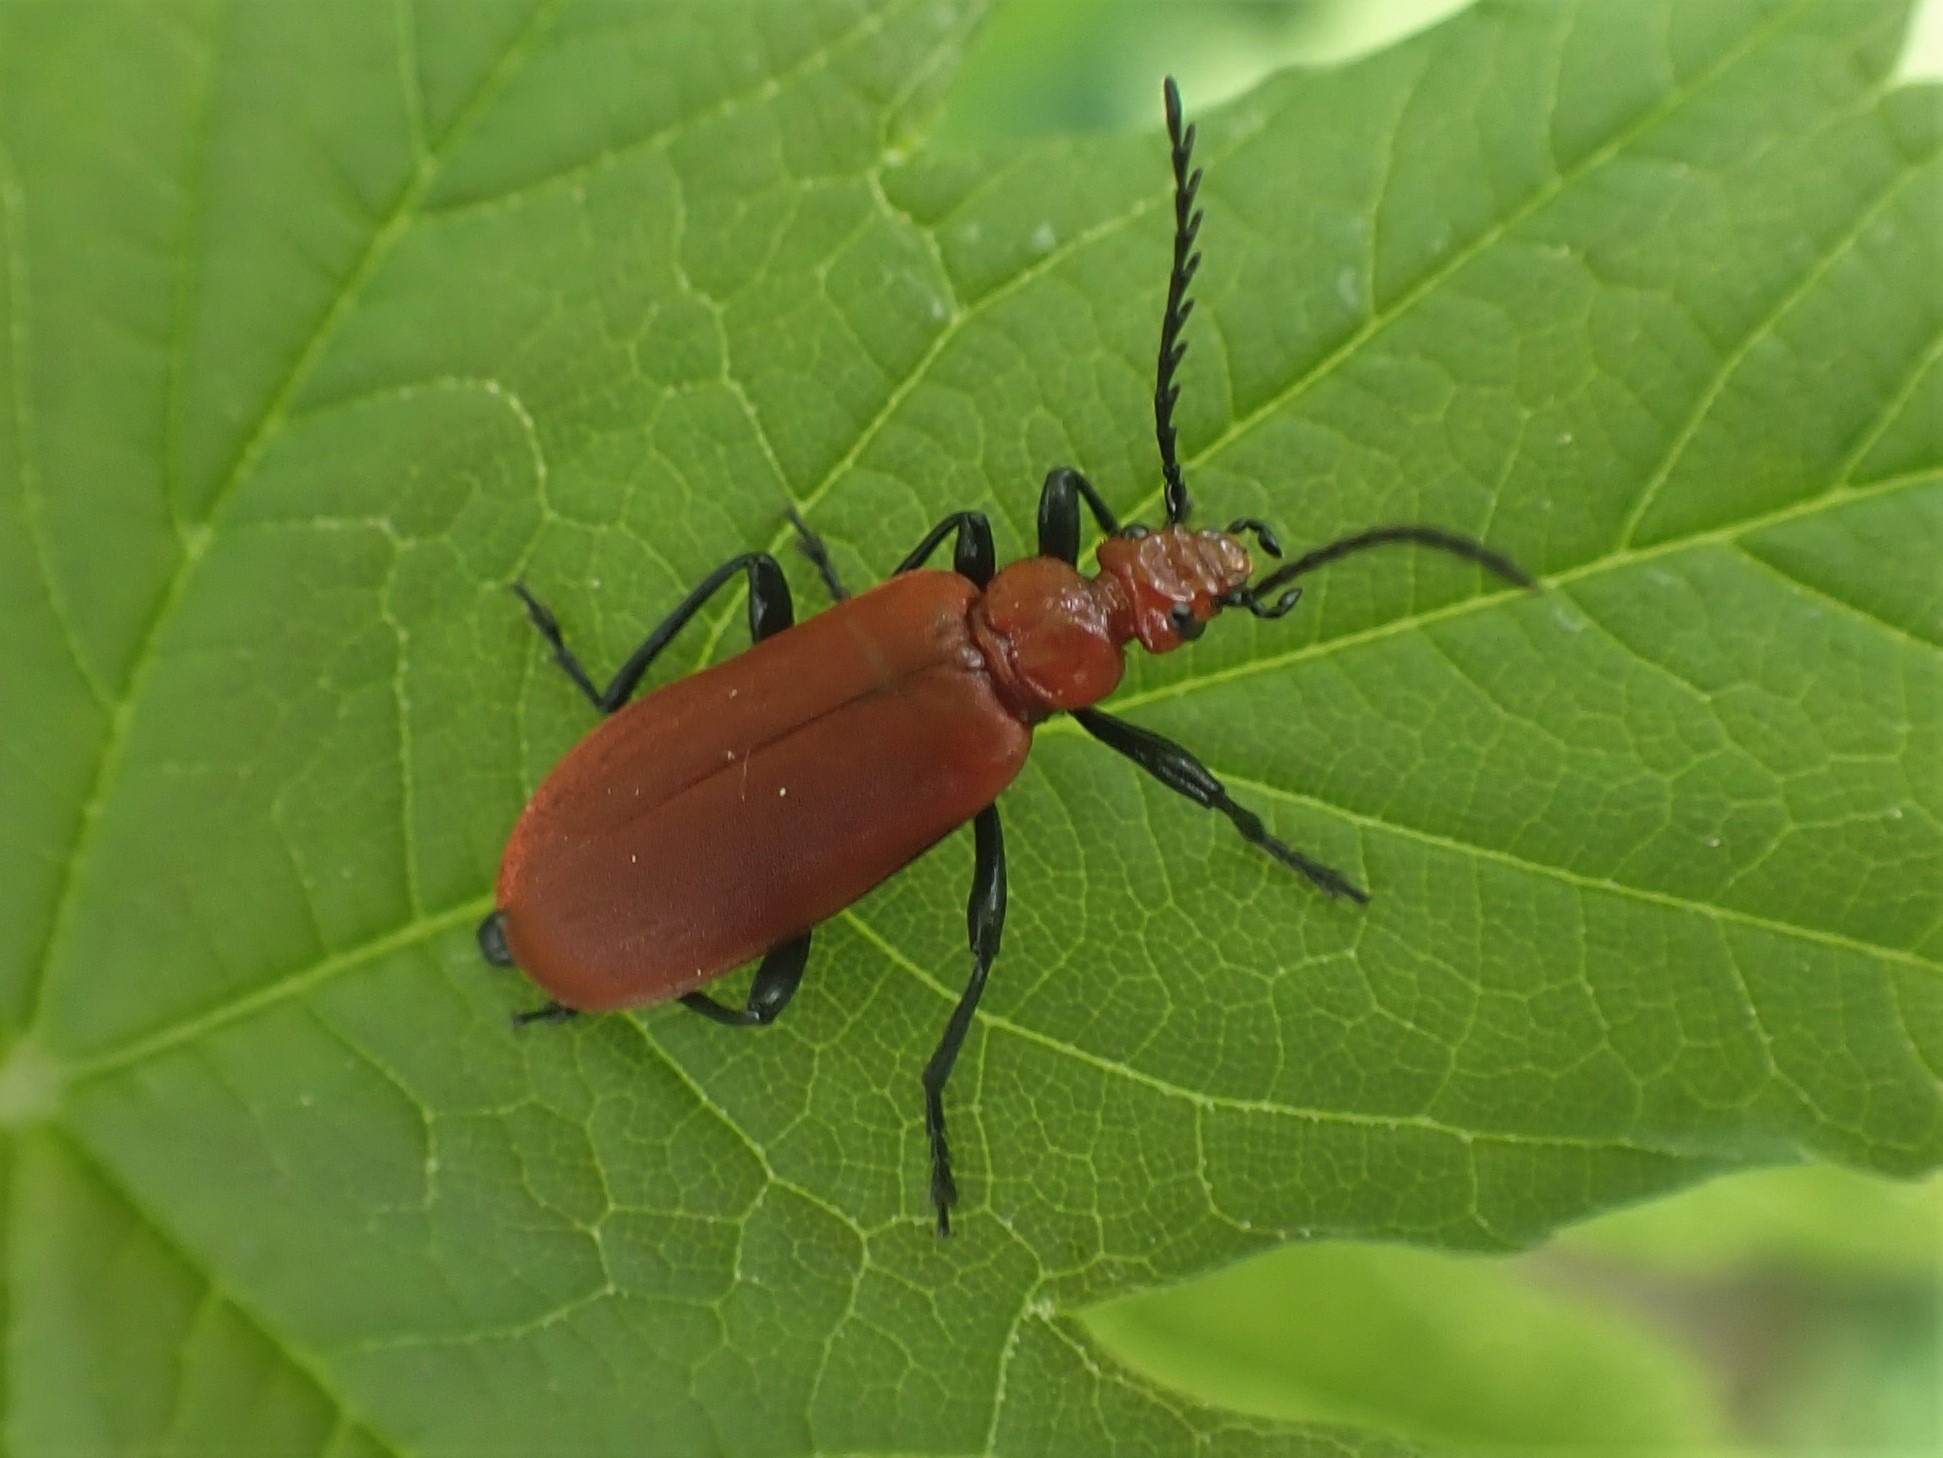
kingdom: Animalia
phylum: Arthropoda
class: Insecta
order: Coleoptera
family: Pyrochroidae
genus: Pyrochroa
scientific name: Pyrochroa serraticornis
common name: Rødhovedet kardinalbille
